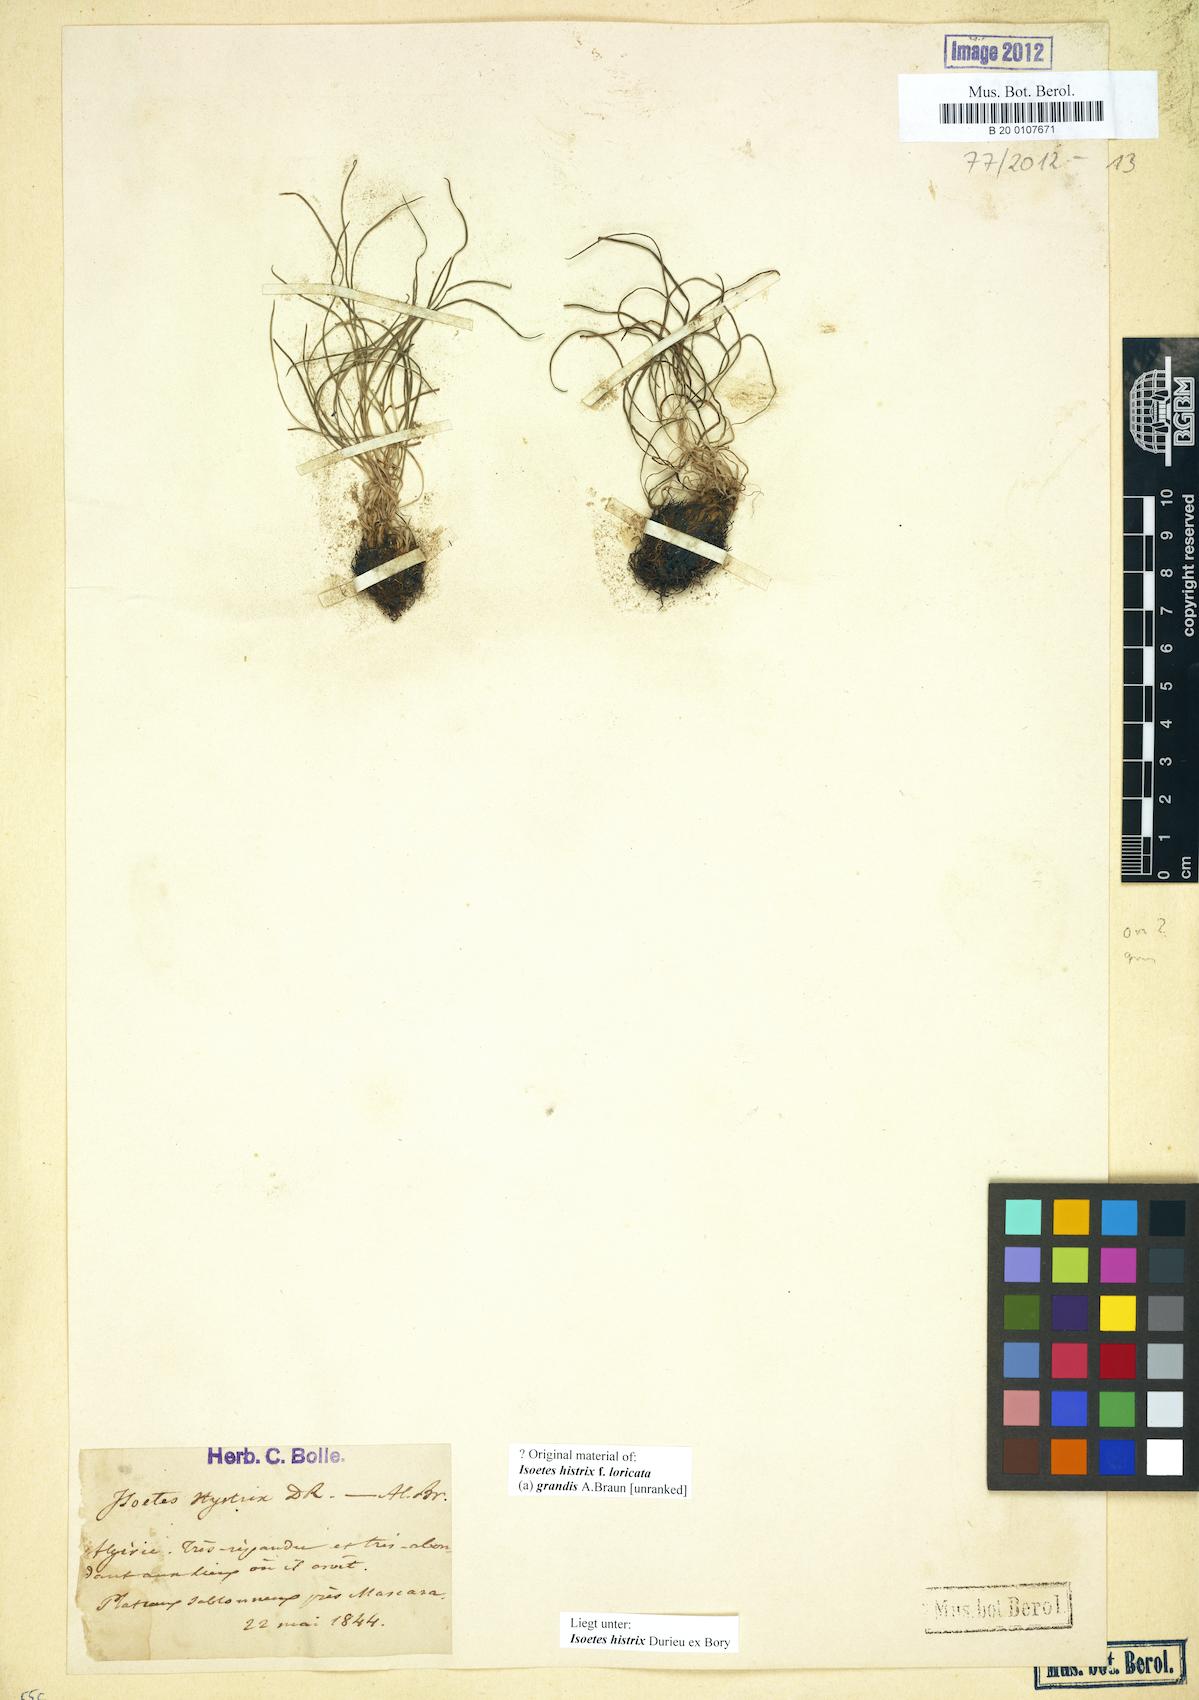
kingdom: Plantae
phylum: Tracheophyta
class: Lycopodiopsida
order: Isoetales
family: Isoetaceae
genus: Isoetes
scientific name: Isoetes histrix
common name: Land quillwort
